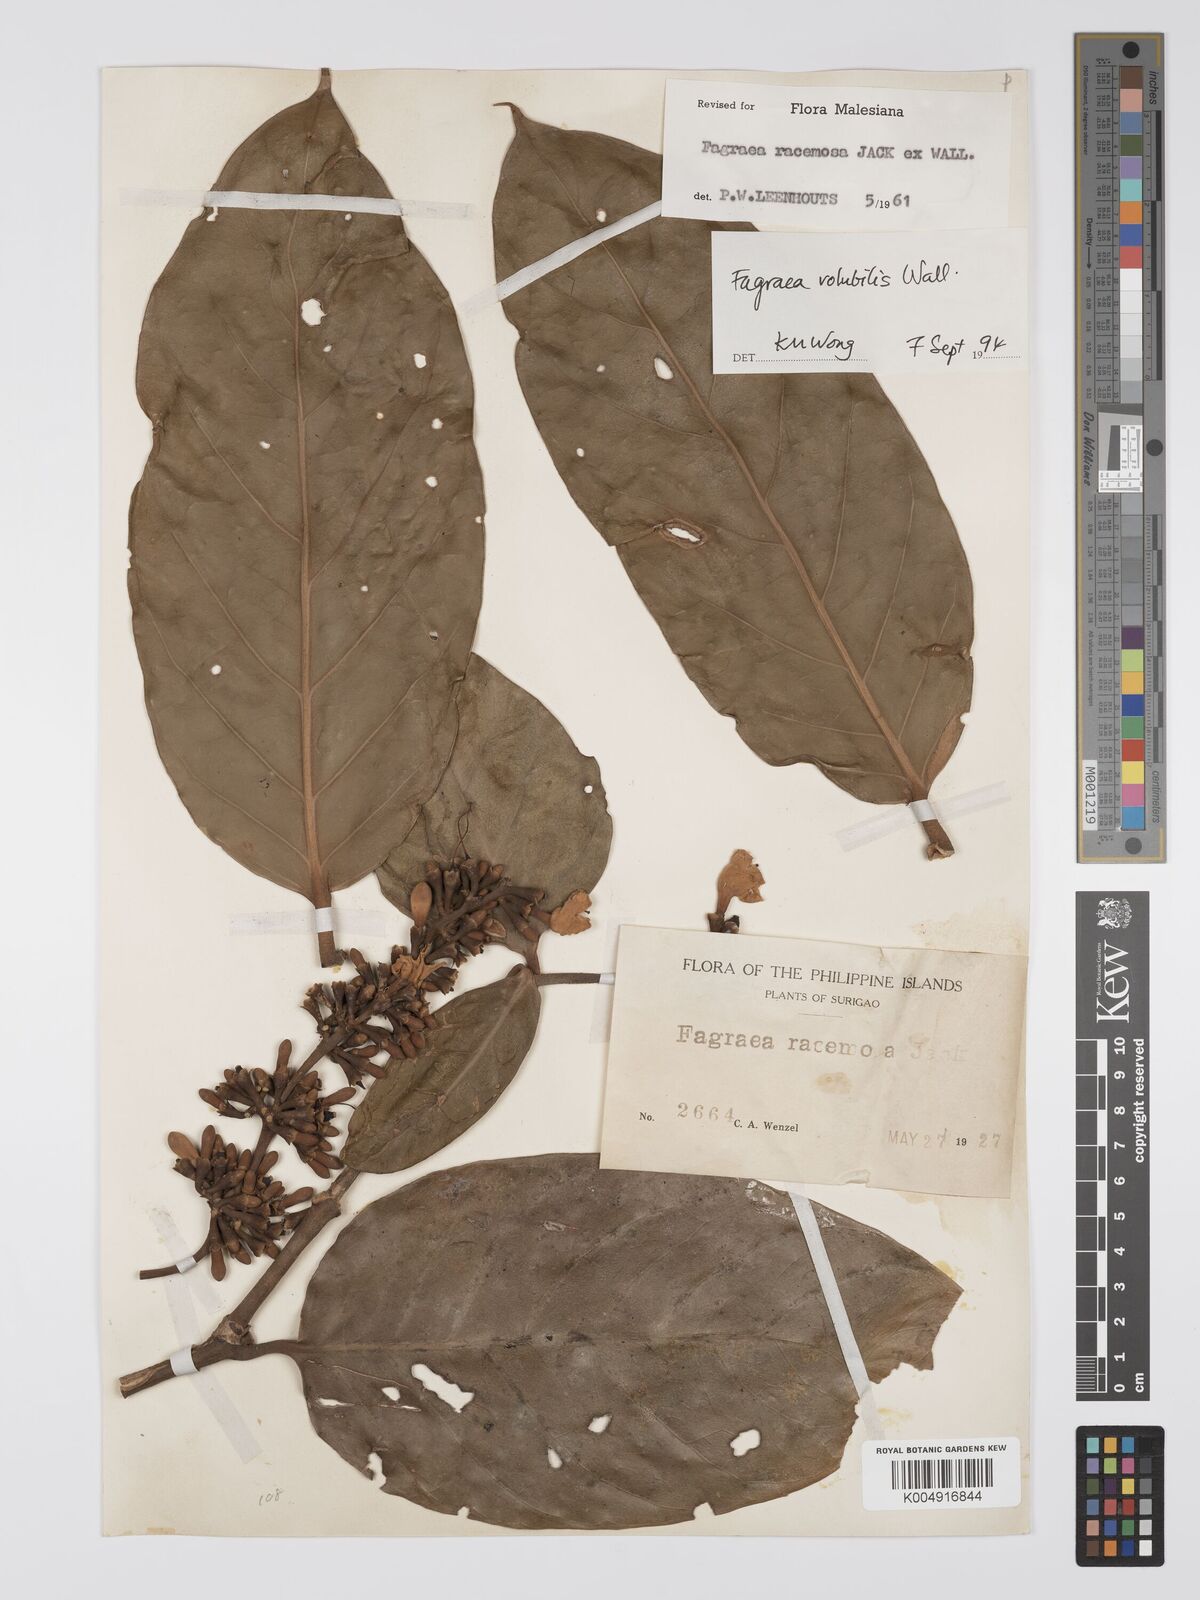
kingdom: Plantae
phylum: Tracheophyta
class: Magnoliopsida
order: Gentianales
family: Gentianaceae
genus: Utania
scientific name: Utania racemosa
